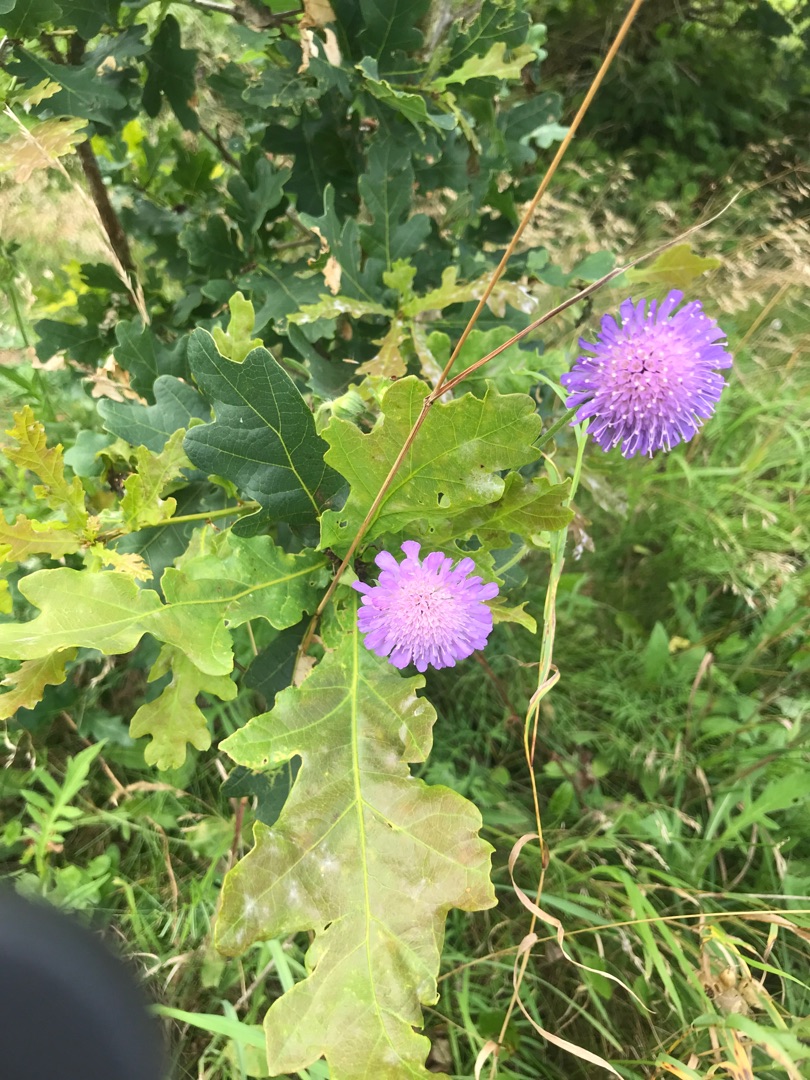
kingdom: Plantae
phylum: Tracheophyta
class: Magnoliopsida
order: Dipsacales
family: Caprifoliaceae
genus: Knautia
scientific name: Knautia arvensis
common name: Blåhat
